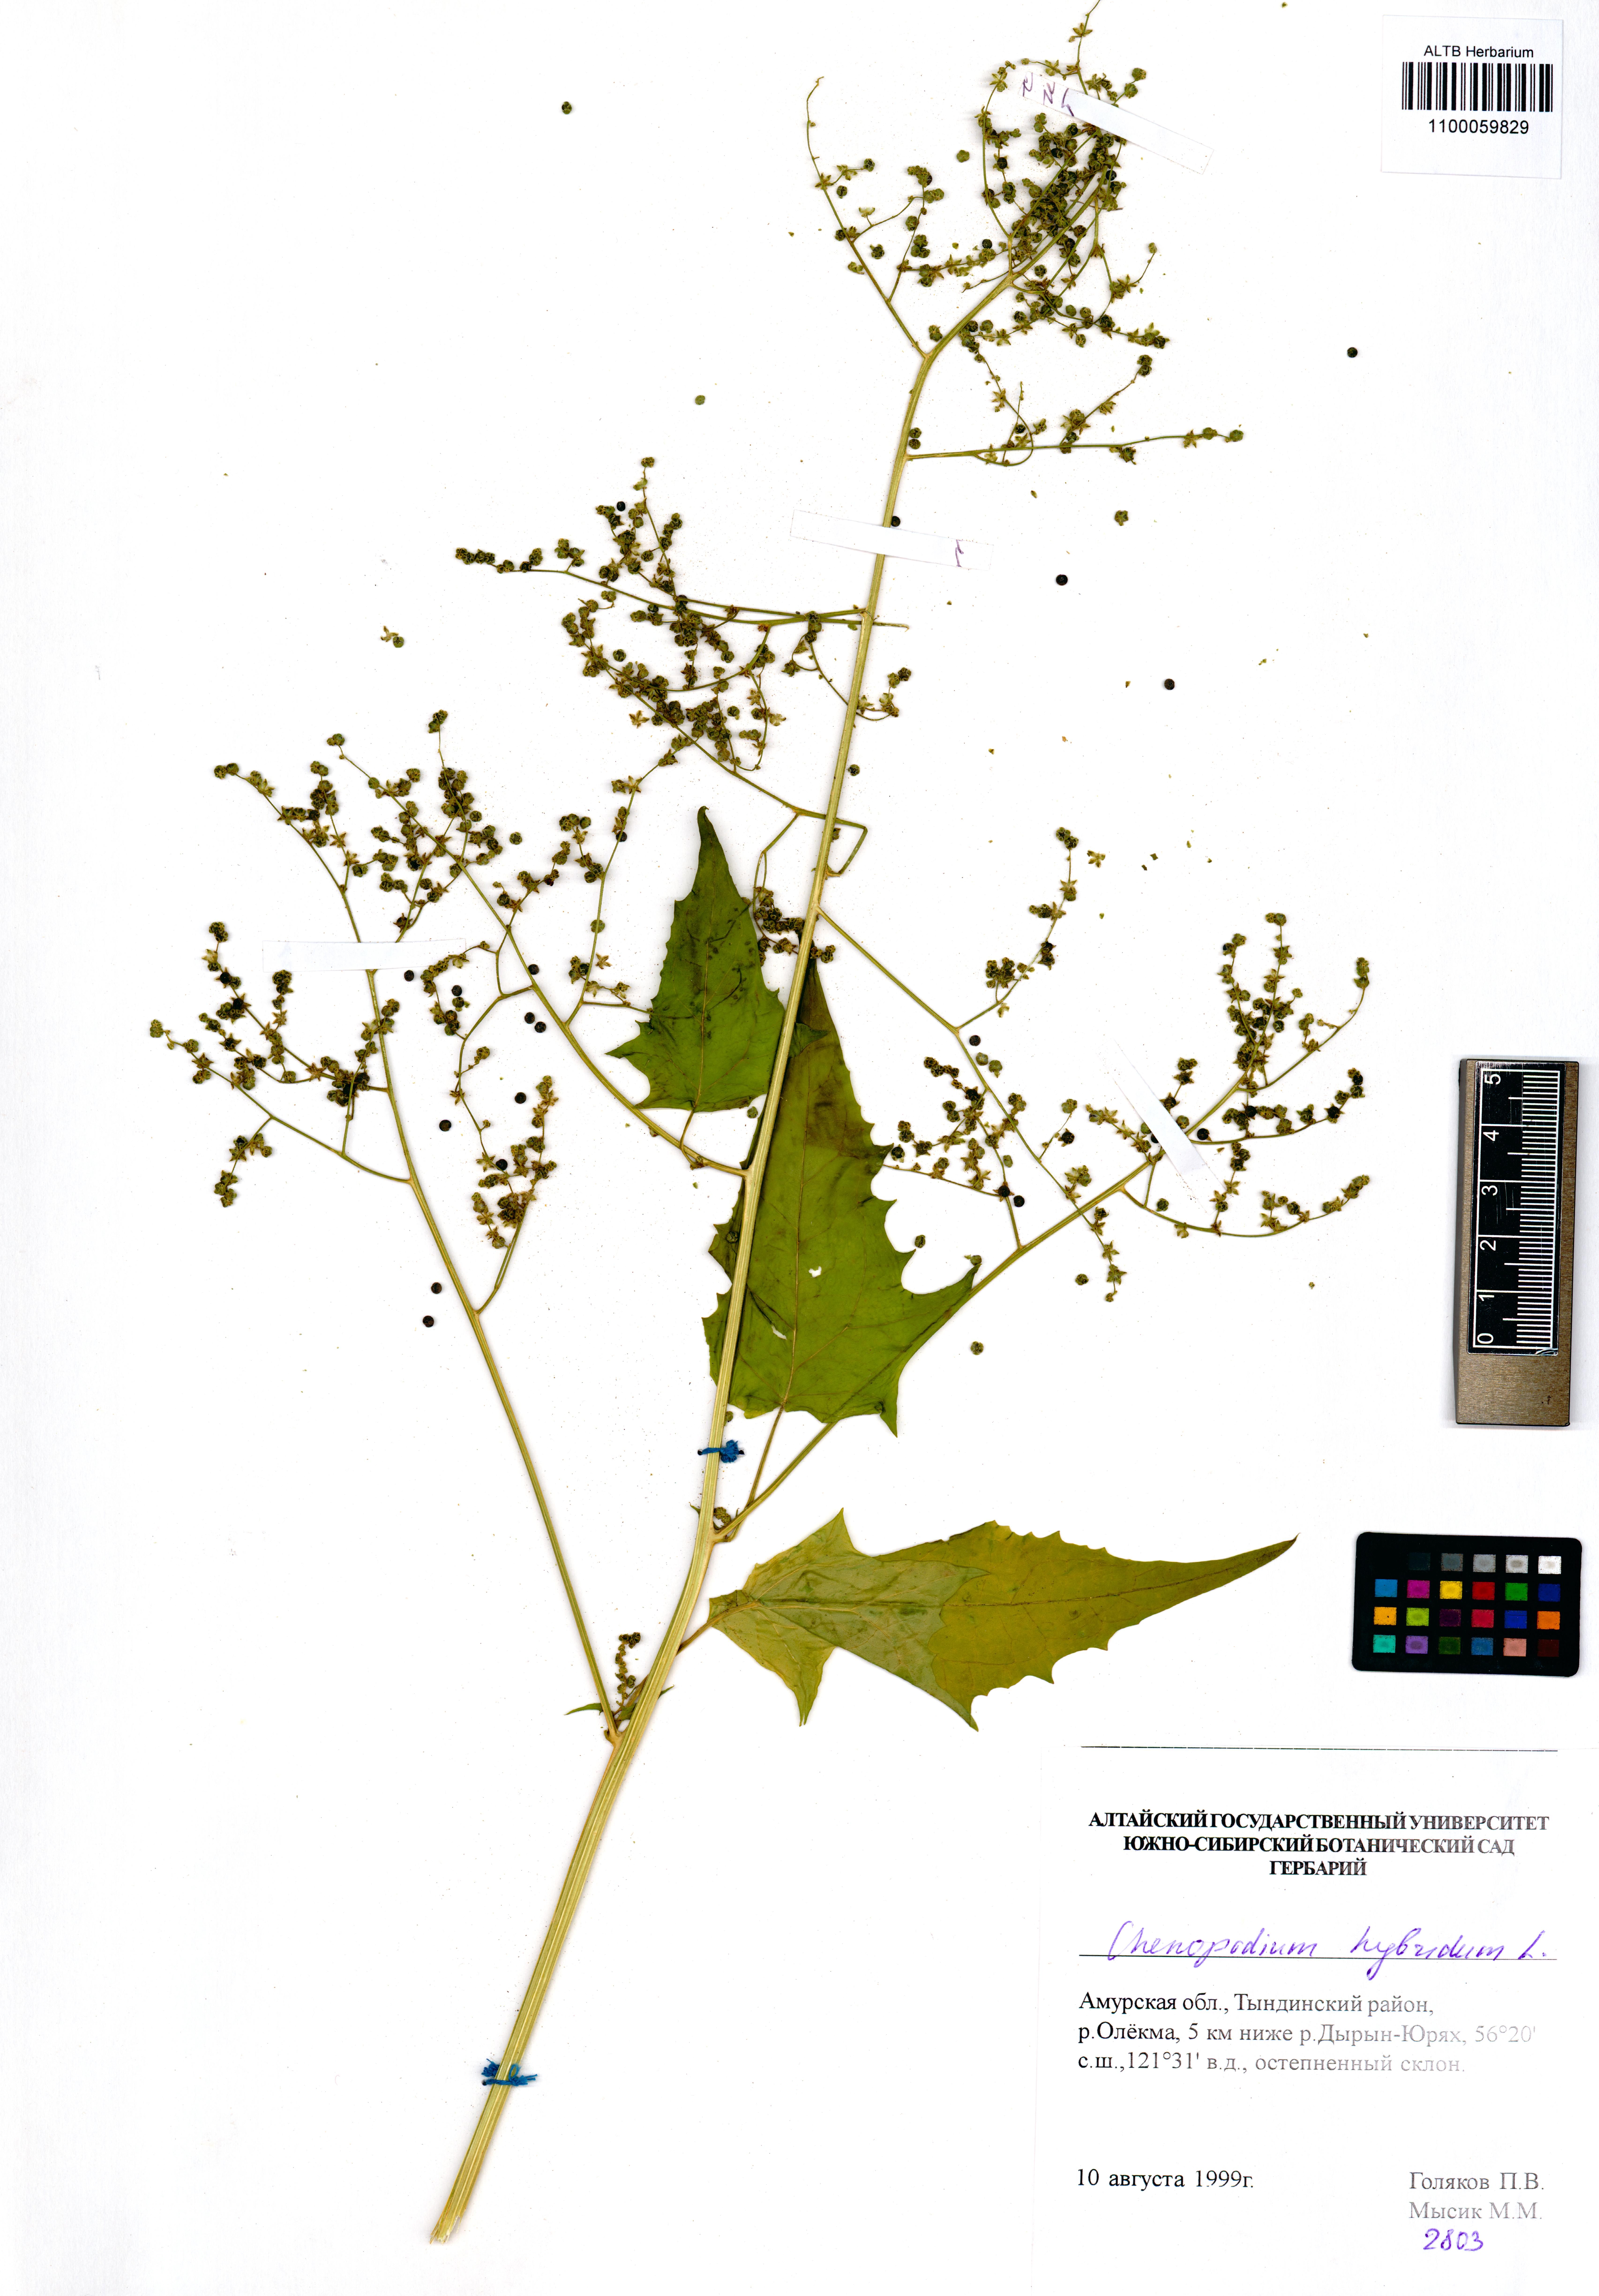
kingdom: Plantae
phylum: Tracheophyta
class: Magnoliopsida
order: Caryophyllales
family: Amaranthaceae
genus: Chenopodiastrum
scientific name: Chenopodiastrum hybridum
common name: Mapleleaf goosefoot
